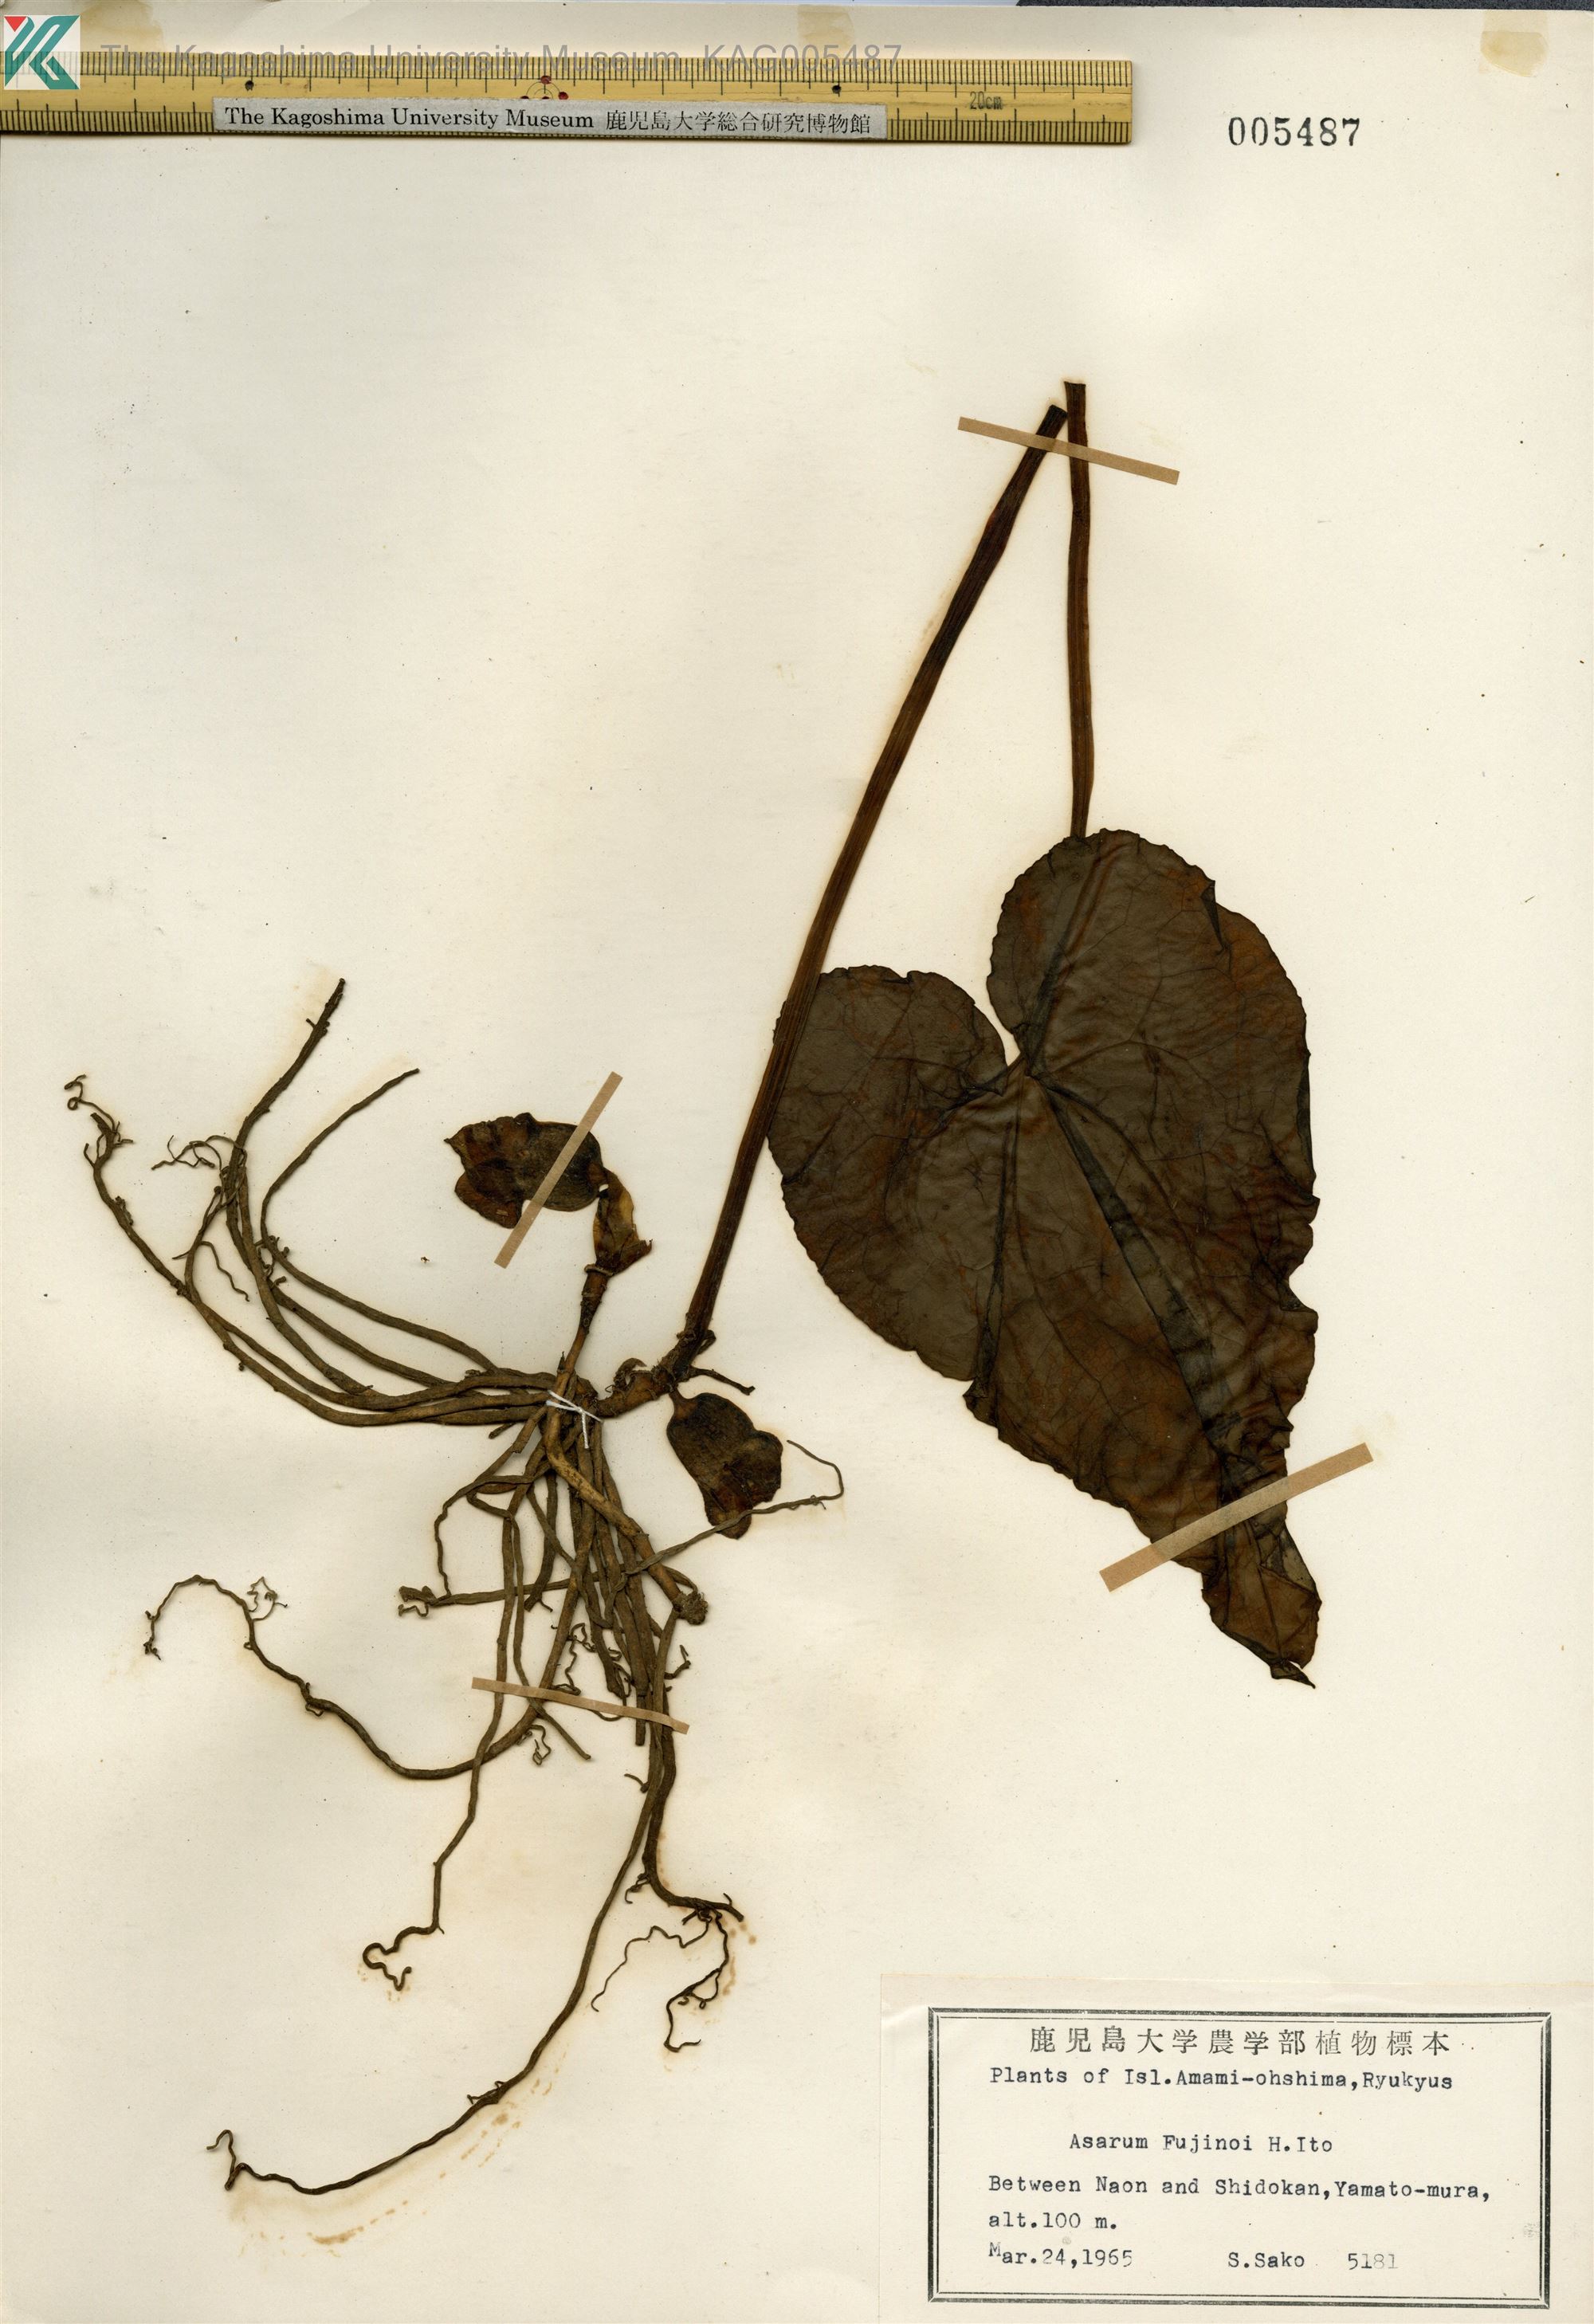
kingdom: Plantae
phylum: Tracheophyta
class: Magnoliopsida
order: Piperales
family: Aristolochiaceae
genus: Asarum
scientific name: Asarum
